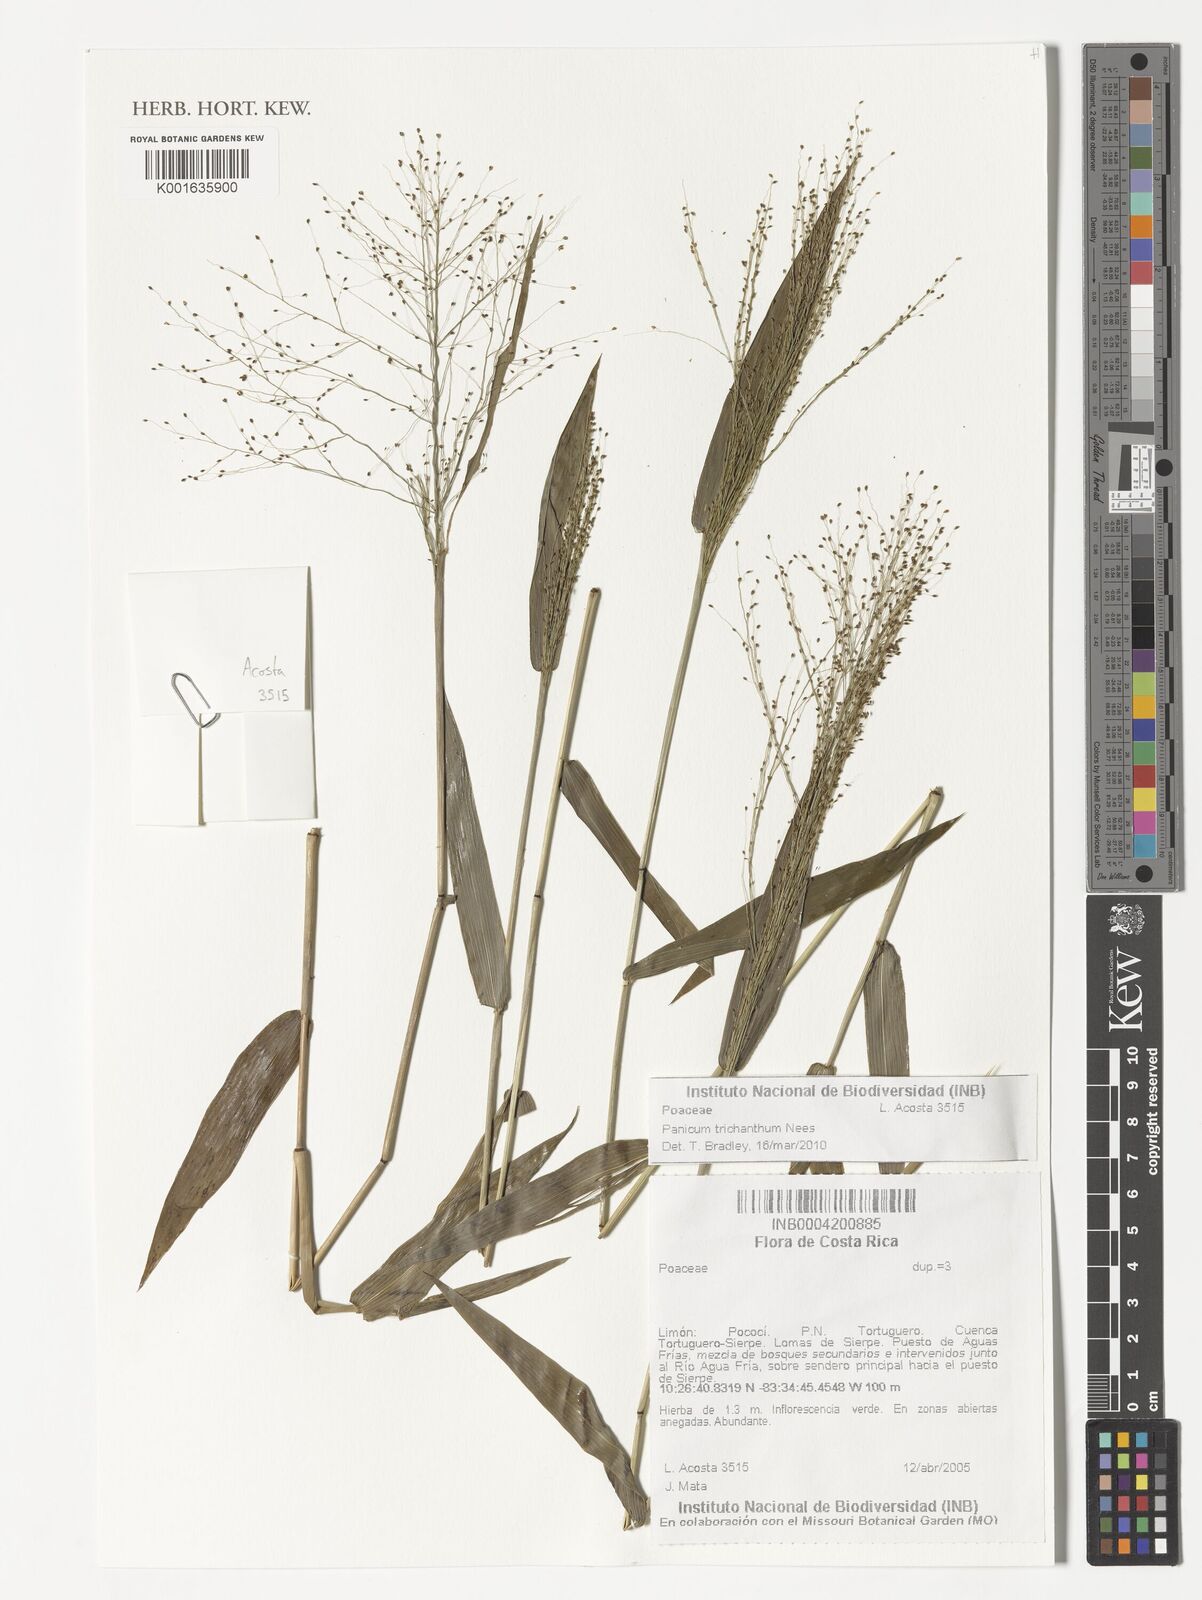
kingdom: Plantae
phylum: Tracheophyta
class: Liliopsida
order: Poales
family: Poaceae
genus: Panicum
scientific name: Panicum trichanthum
